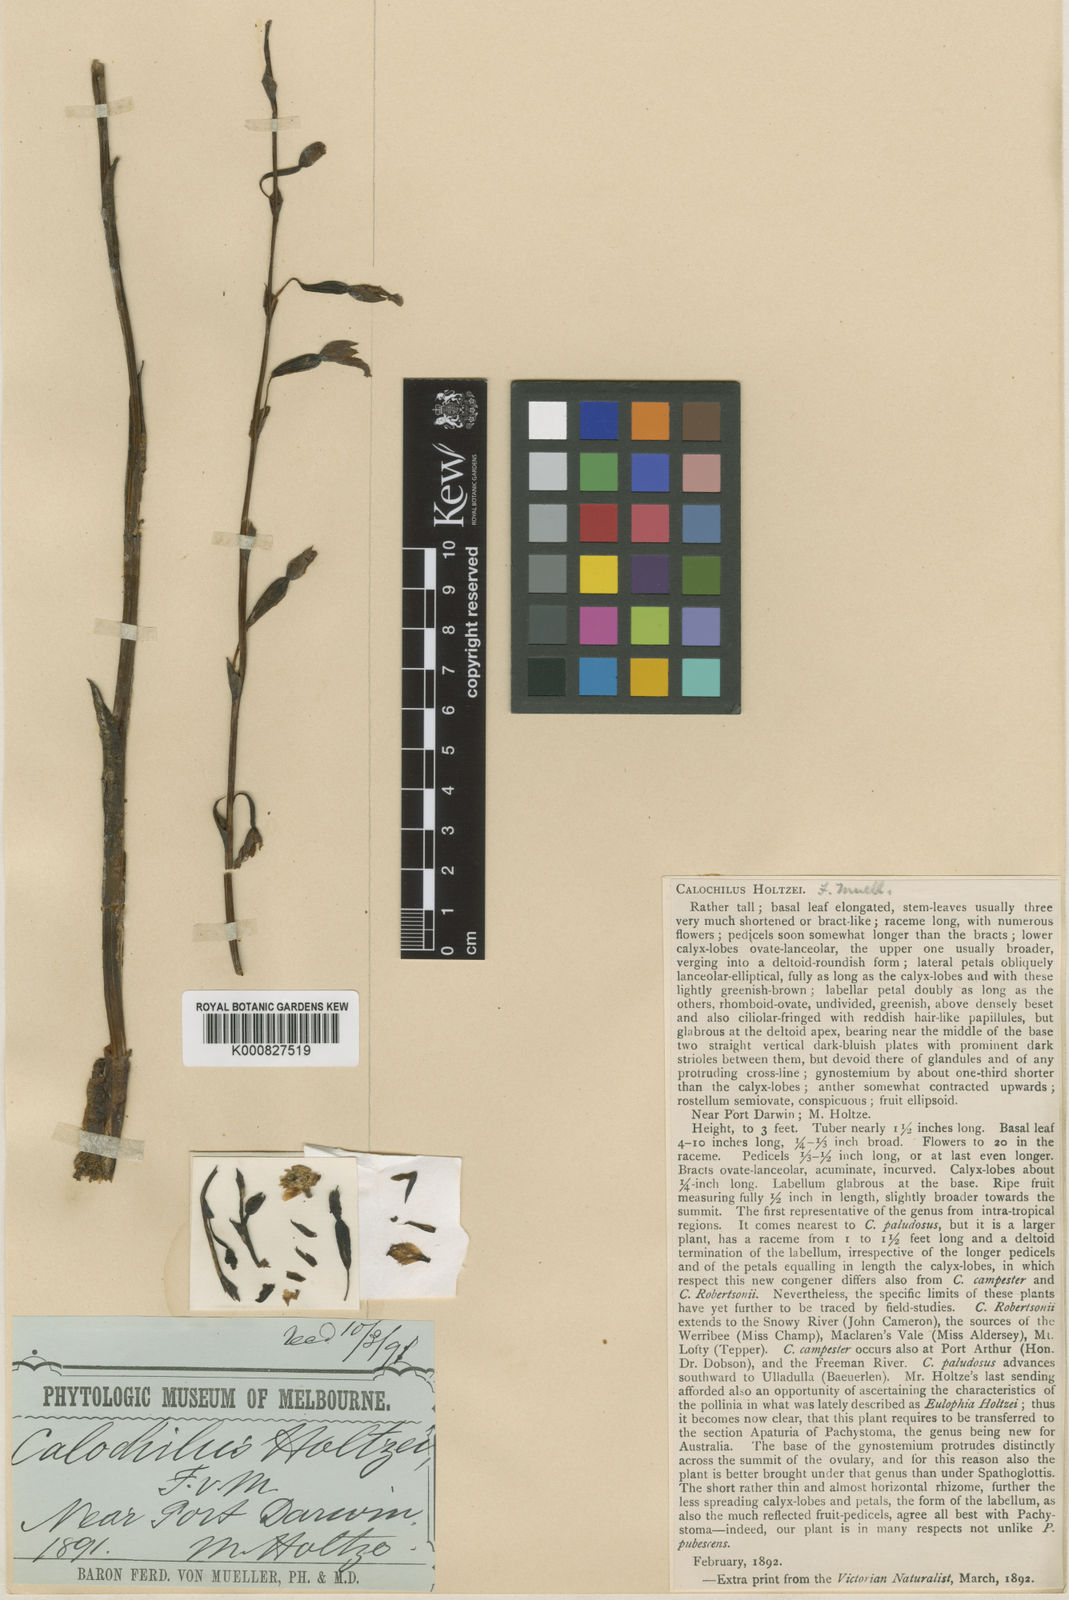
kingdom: Plantae
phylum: Tracheophyta
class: Liliopsida
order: Asparagales
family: Orchidaceae
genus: Calochilus
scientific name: Calochilus holtzei
